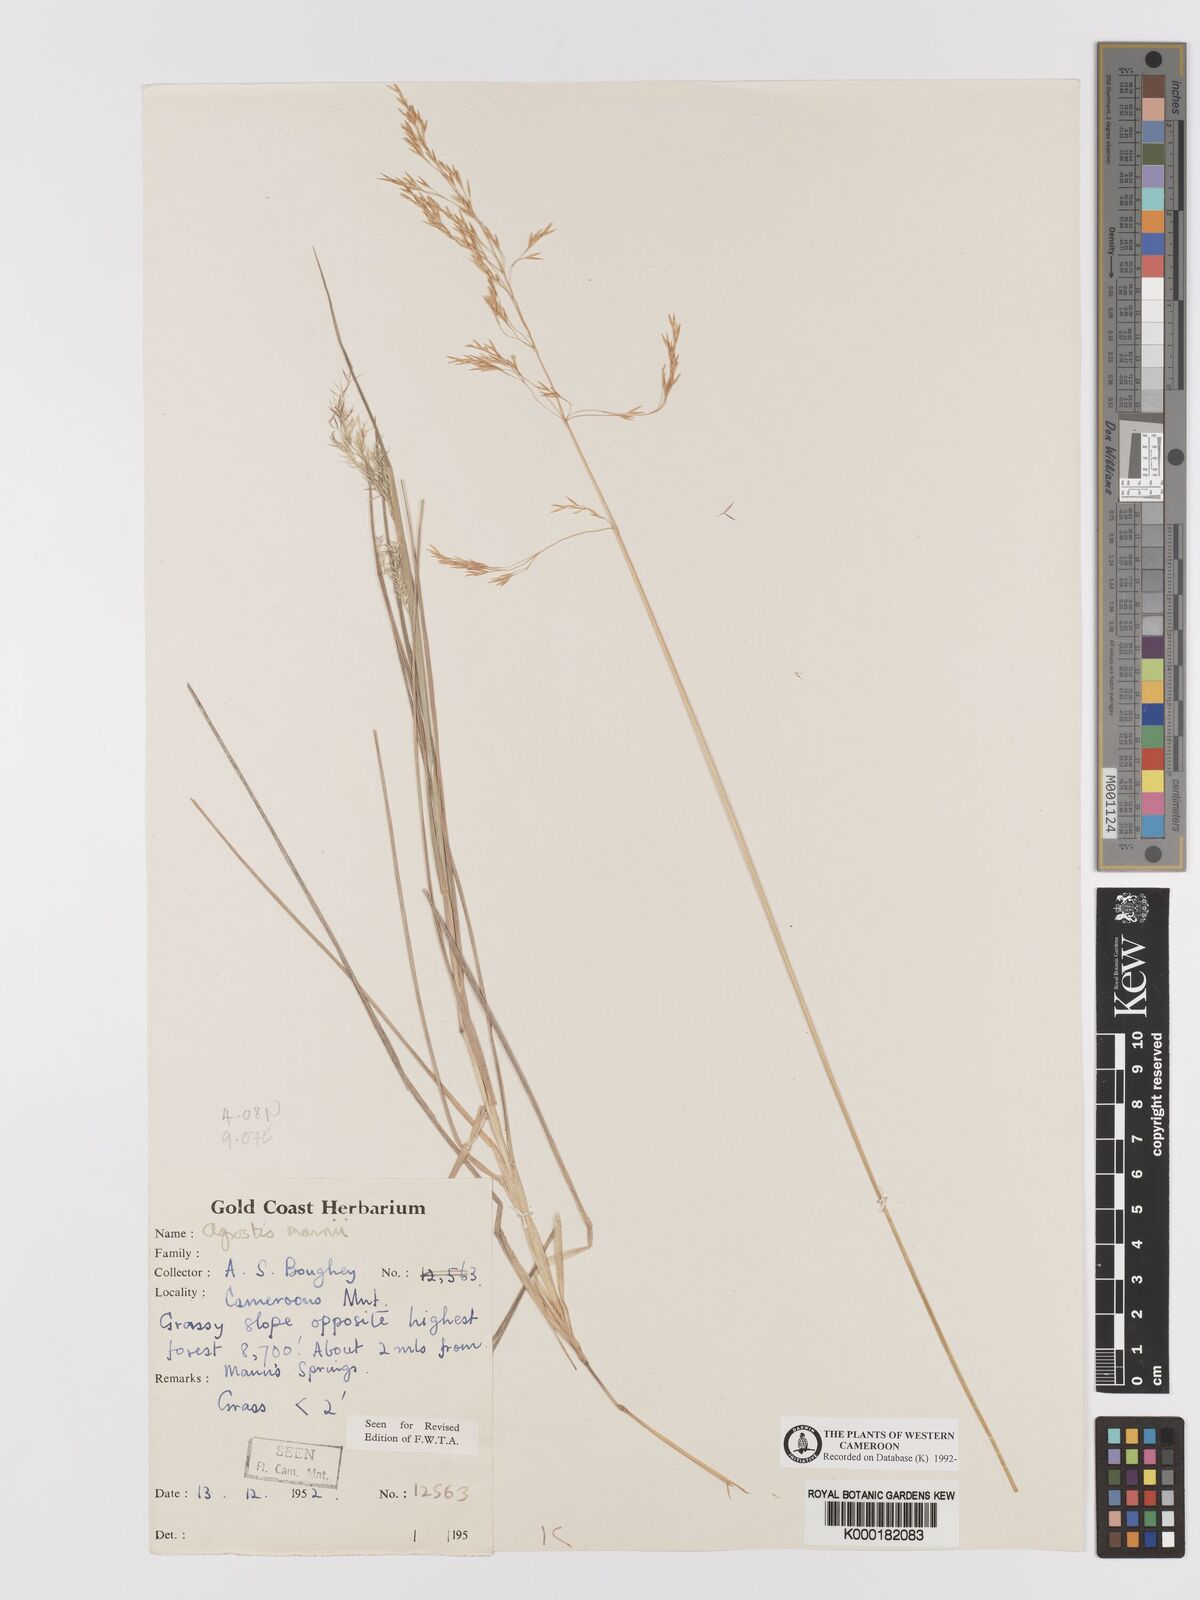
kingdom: Plantae
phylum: Tracheophyta
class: Liliopsida
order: Poales
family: Poaceae
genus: Agrostis
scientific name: Agrostis mannii
